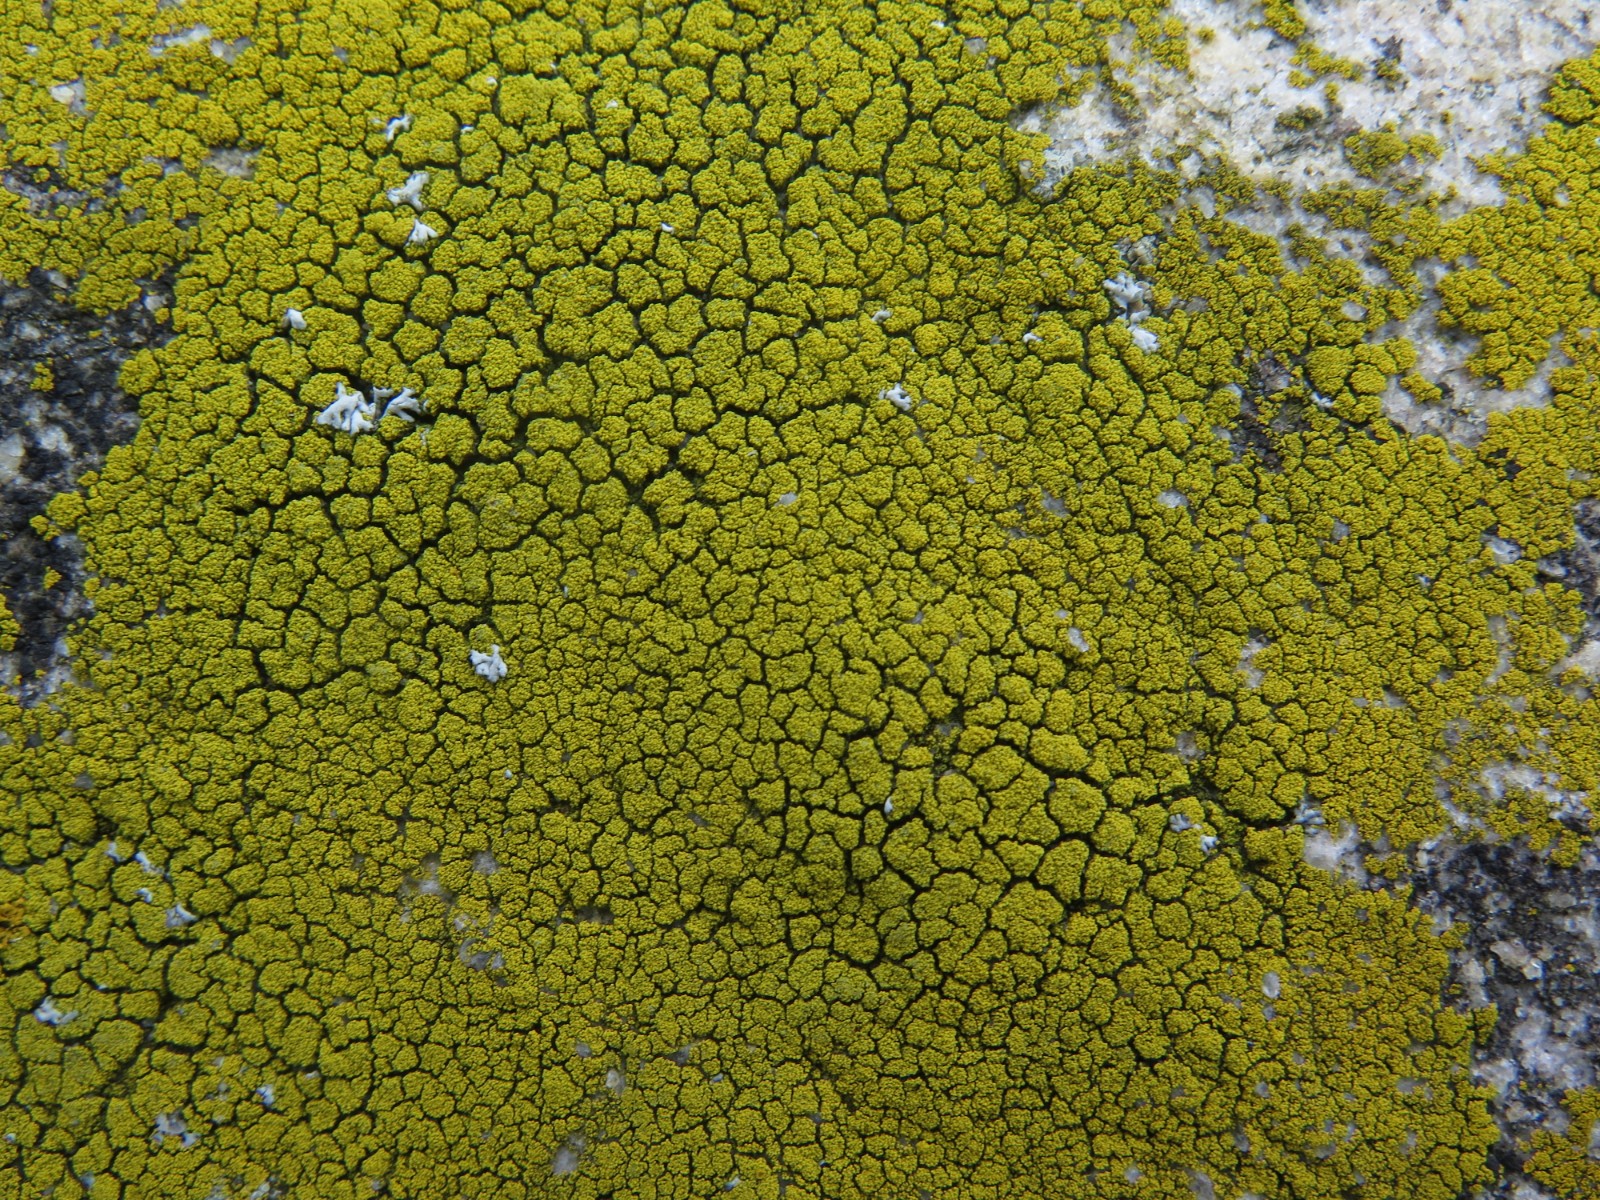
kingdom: Fungi
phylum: Ascomycota
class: Candelariomycetes
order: Candelariales
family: Candelariaceae
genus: Candelariella
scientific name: Candelariella coralliza
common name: pude-æggeblommelav
